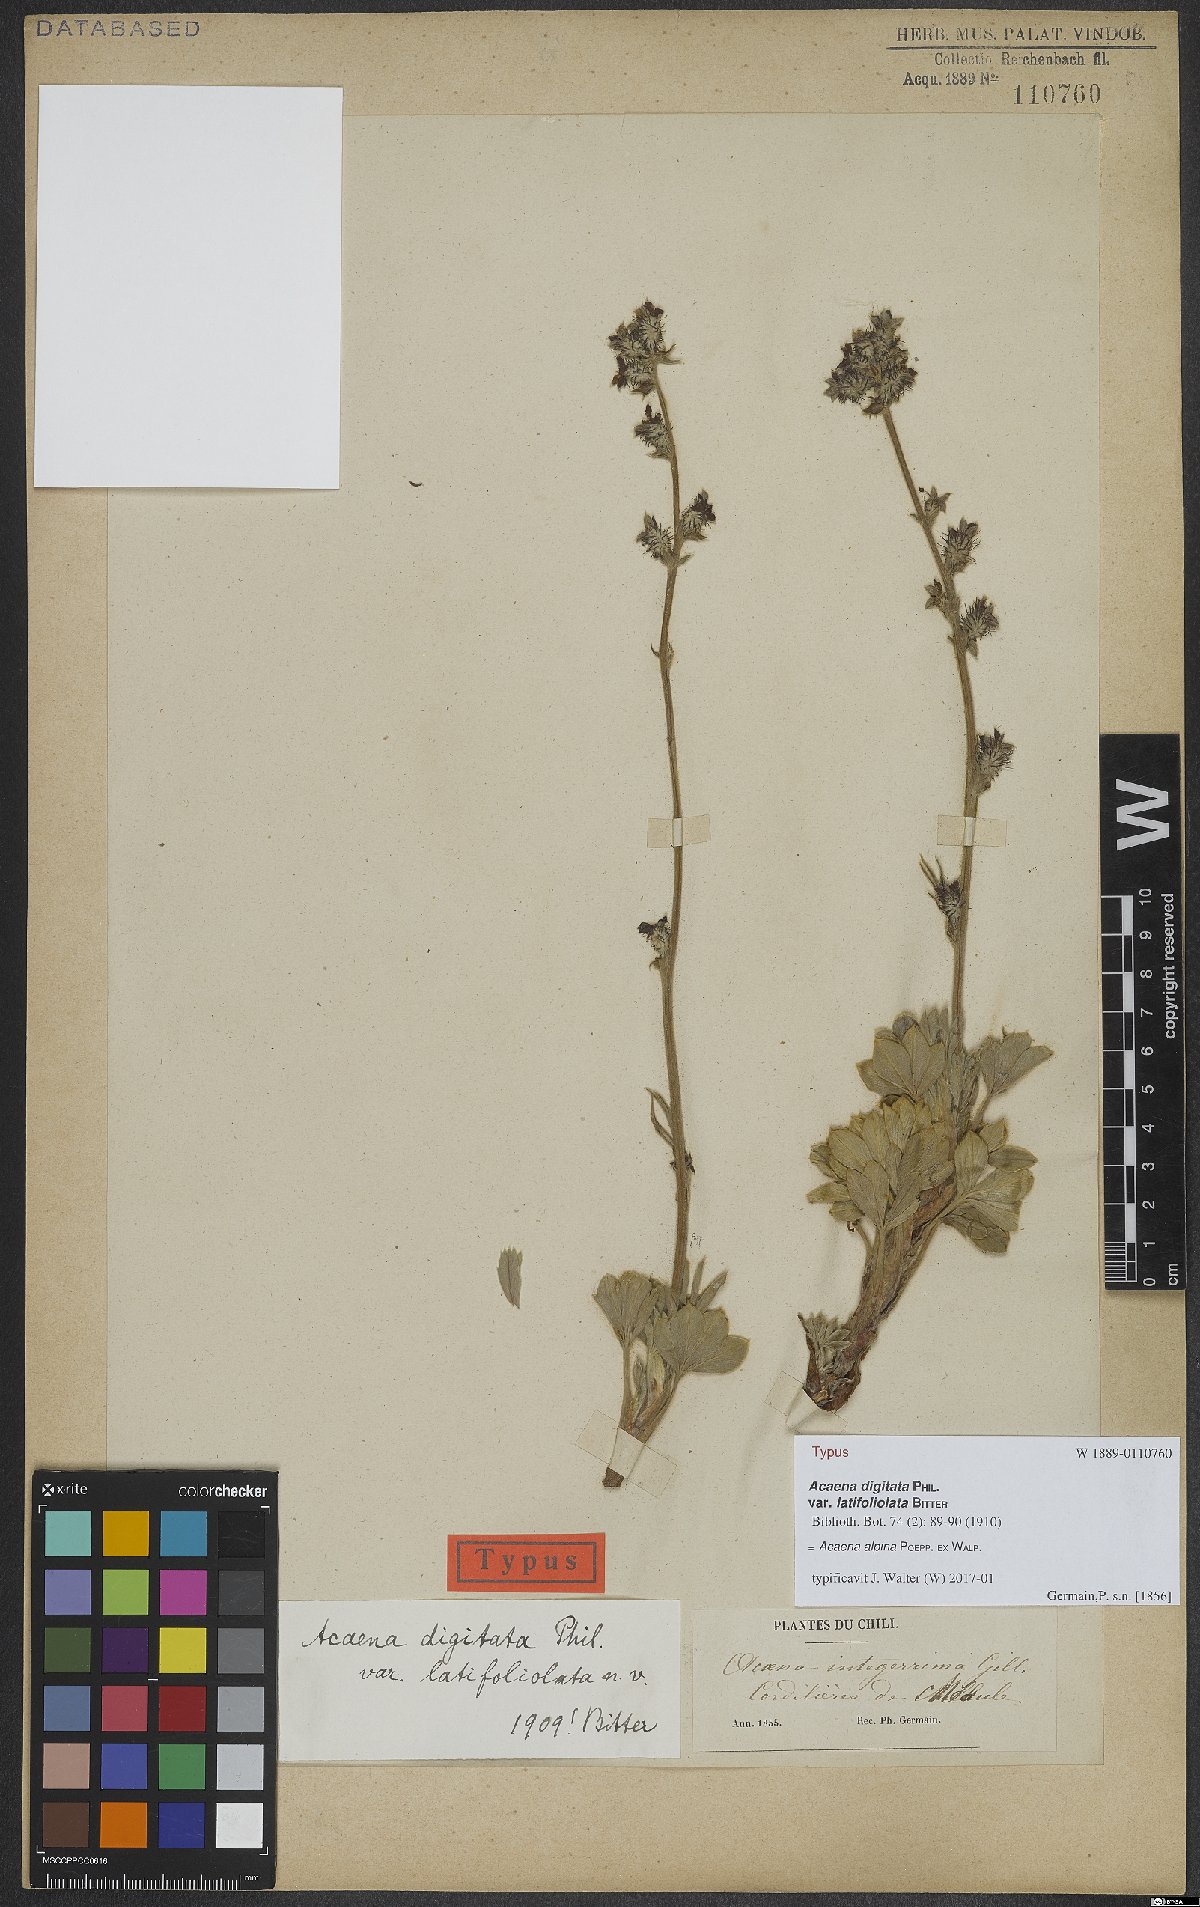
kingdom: Plantae
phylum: Tracheophyta
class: Magnoliopsida
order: Rosales
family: Rosaceae
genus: Acaena
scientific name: Acaena alpina
